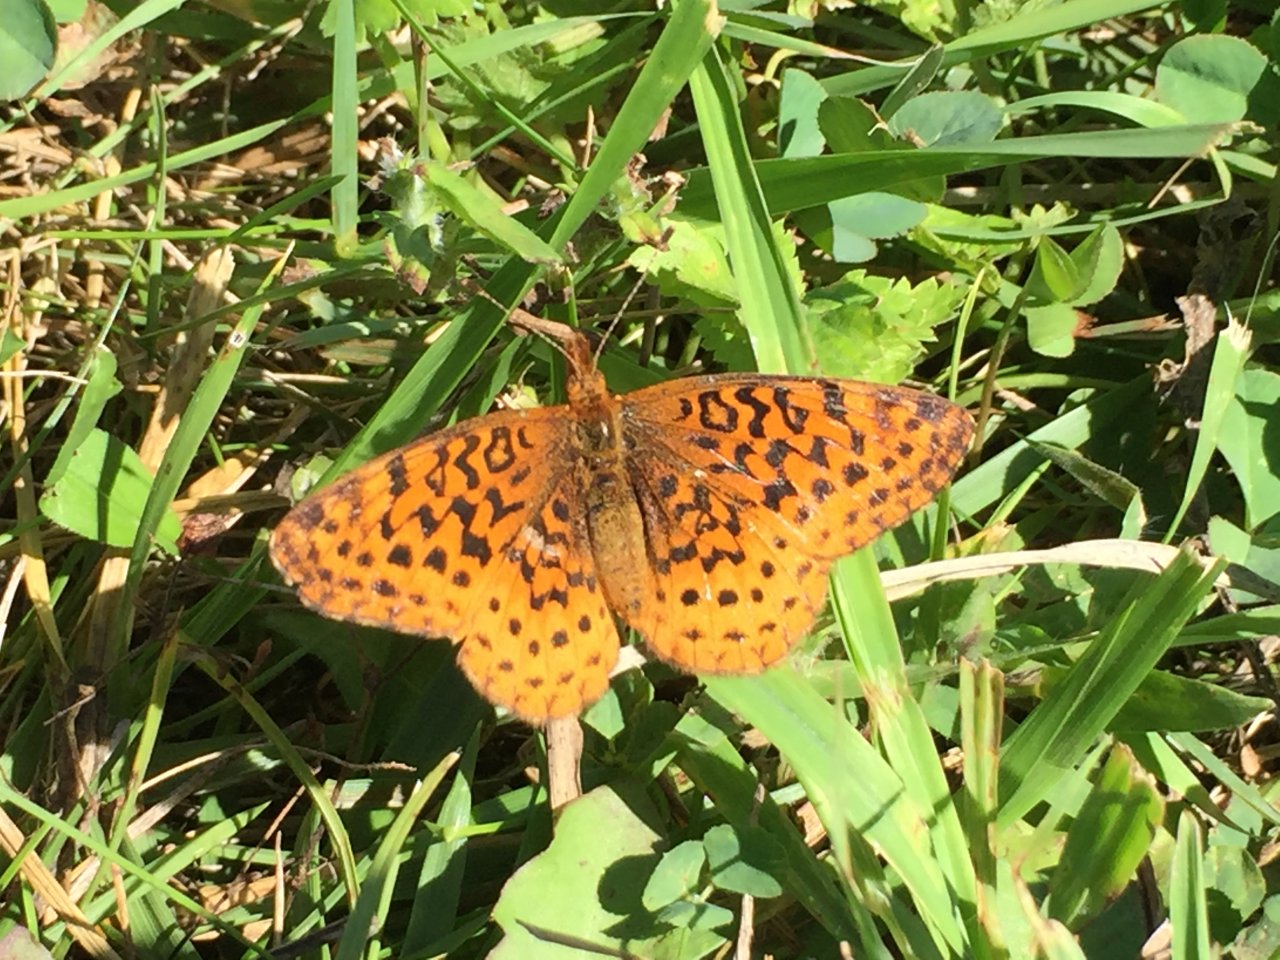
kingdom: Animalia
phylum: Arthropoda
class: Insecta
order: Lepidoptera
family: Nymphalidae
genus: Clossiana
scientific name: Clossiana toddi
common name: Meadow Fritillary
